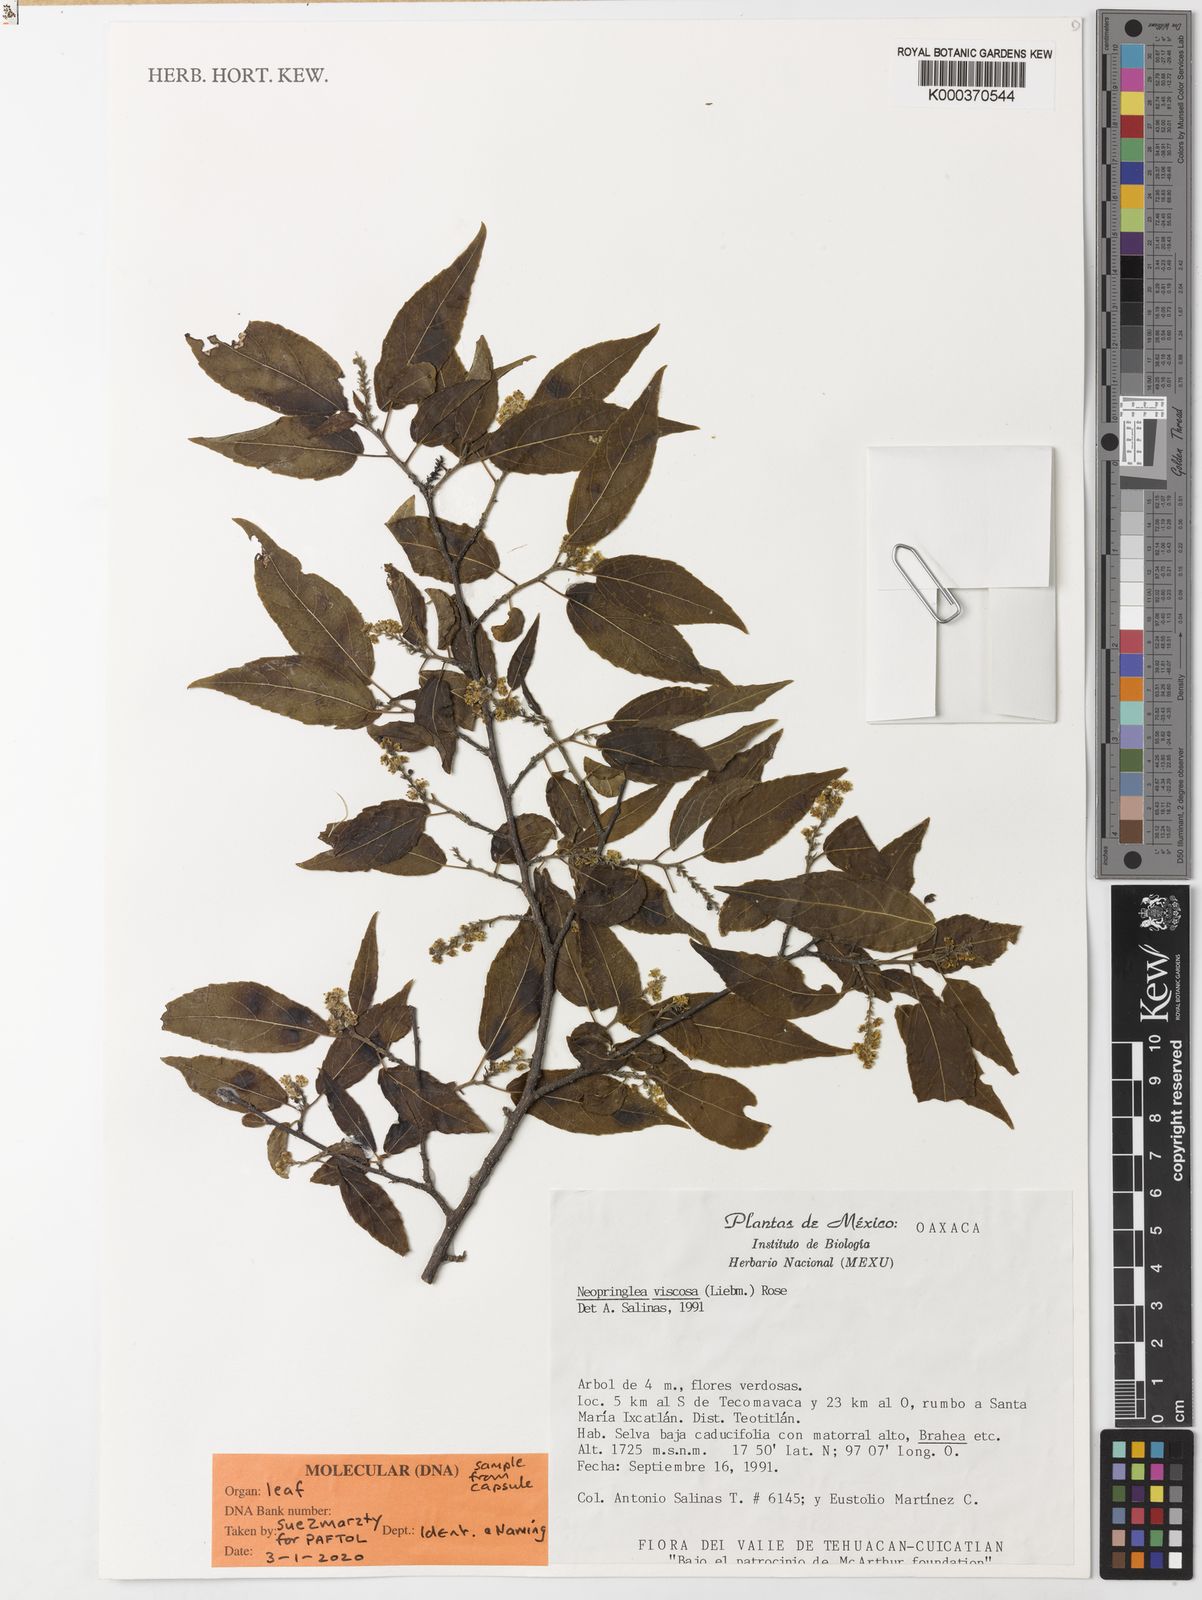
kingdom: Plantae
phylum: Tracheophyta
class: Magnoliopsida
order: Malpighiales
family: Salicaceae
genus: Neopringlea
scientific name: Neopringlea viscosa
